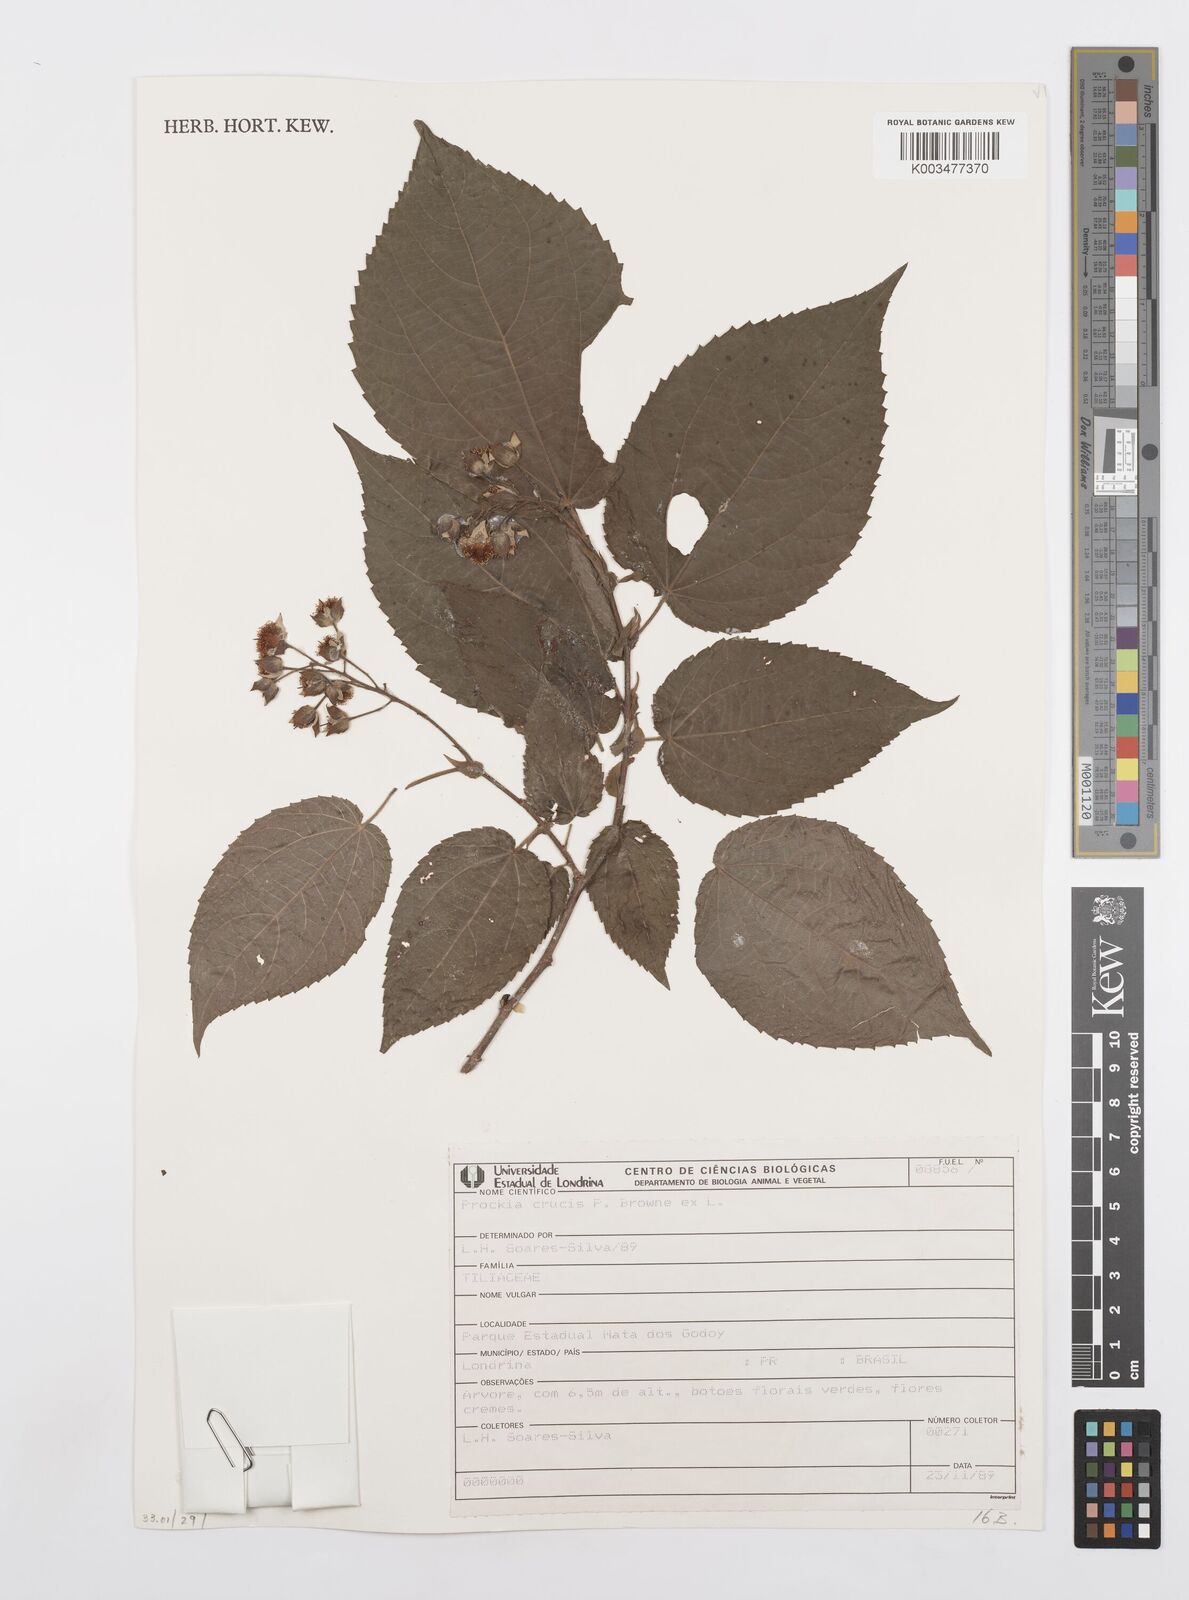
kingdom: Plantae
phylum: Tracheophyta
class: Magnoliopsida
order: Malpighiales
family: Salicaceae
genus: Prockia
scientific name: Prockia crucis
